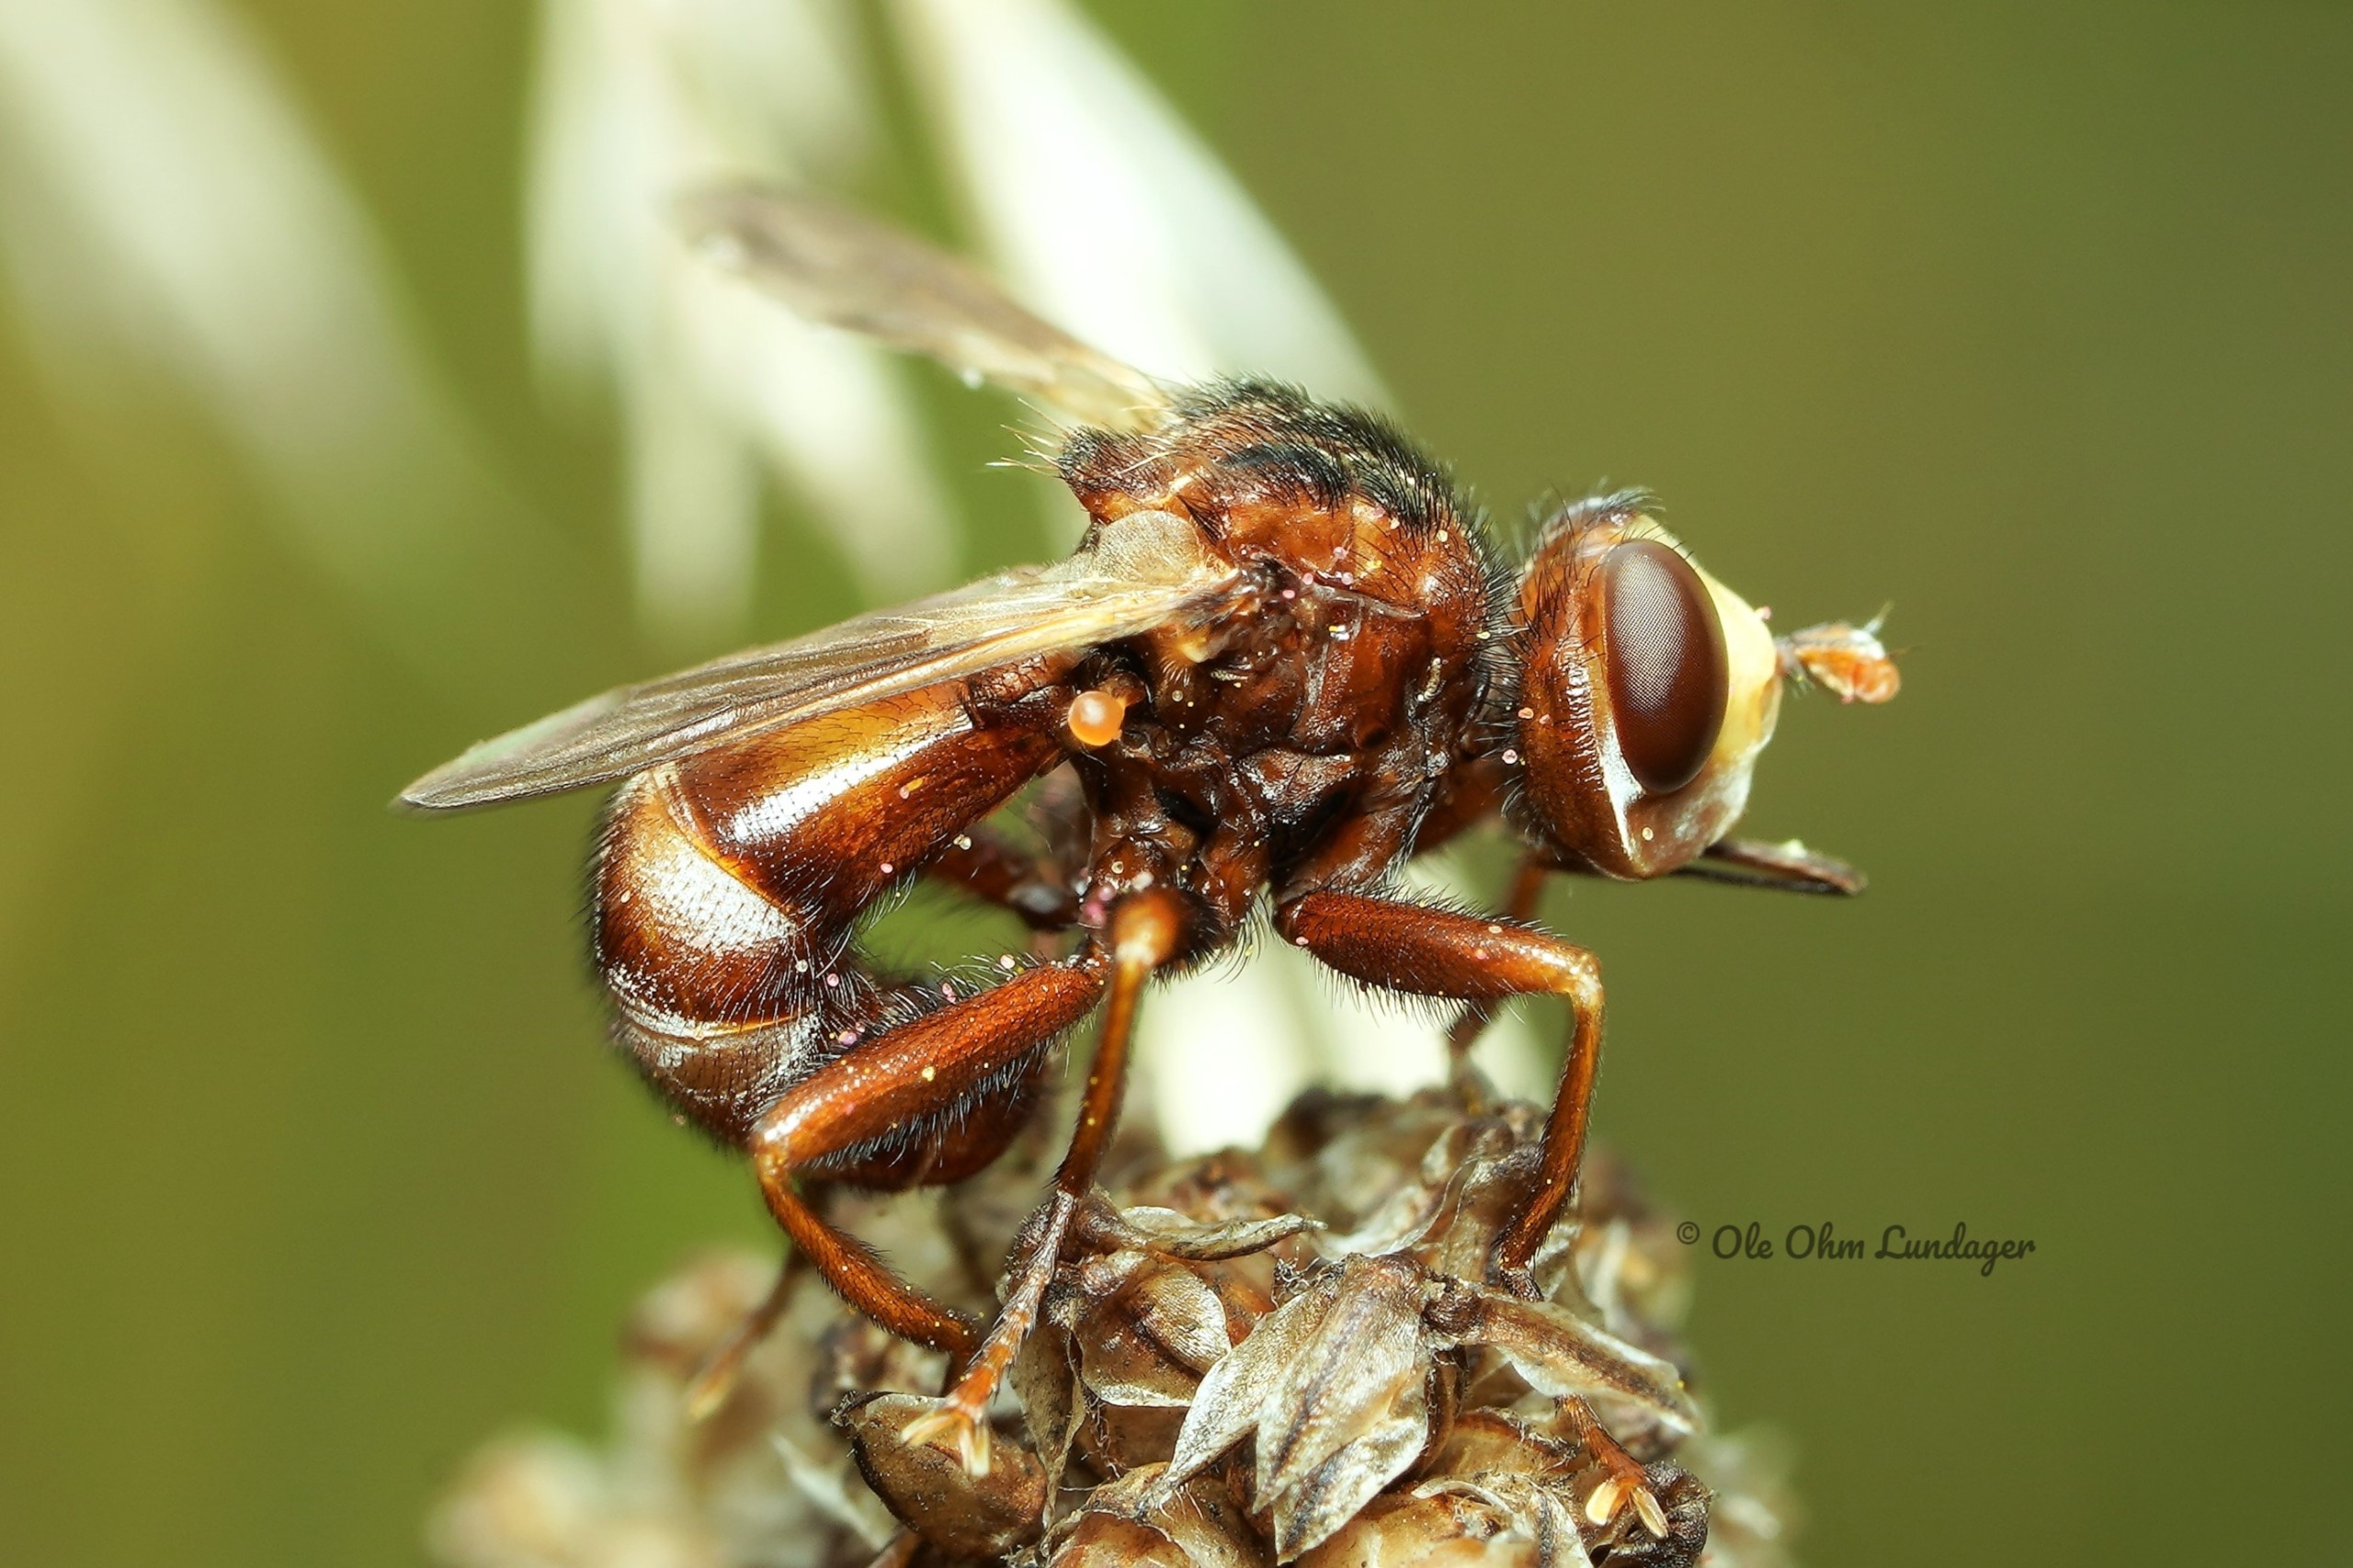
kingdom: Animalia
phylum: Arthropoda
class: Insecta
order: Diptera
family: Conopidae
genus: Sicus
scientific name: Sicus ferrugineus
